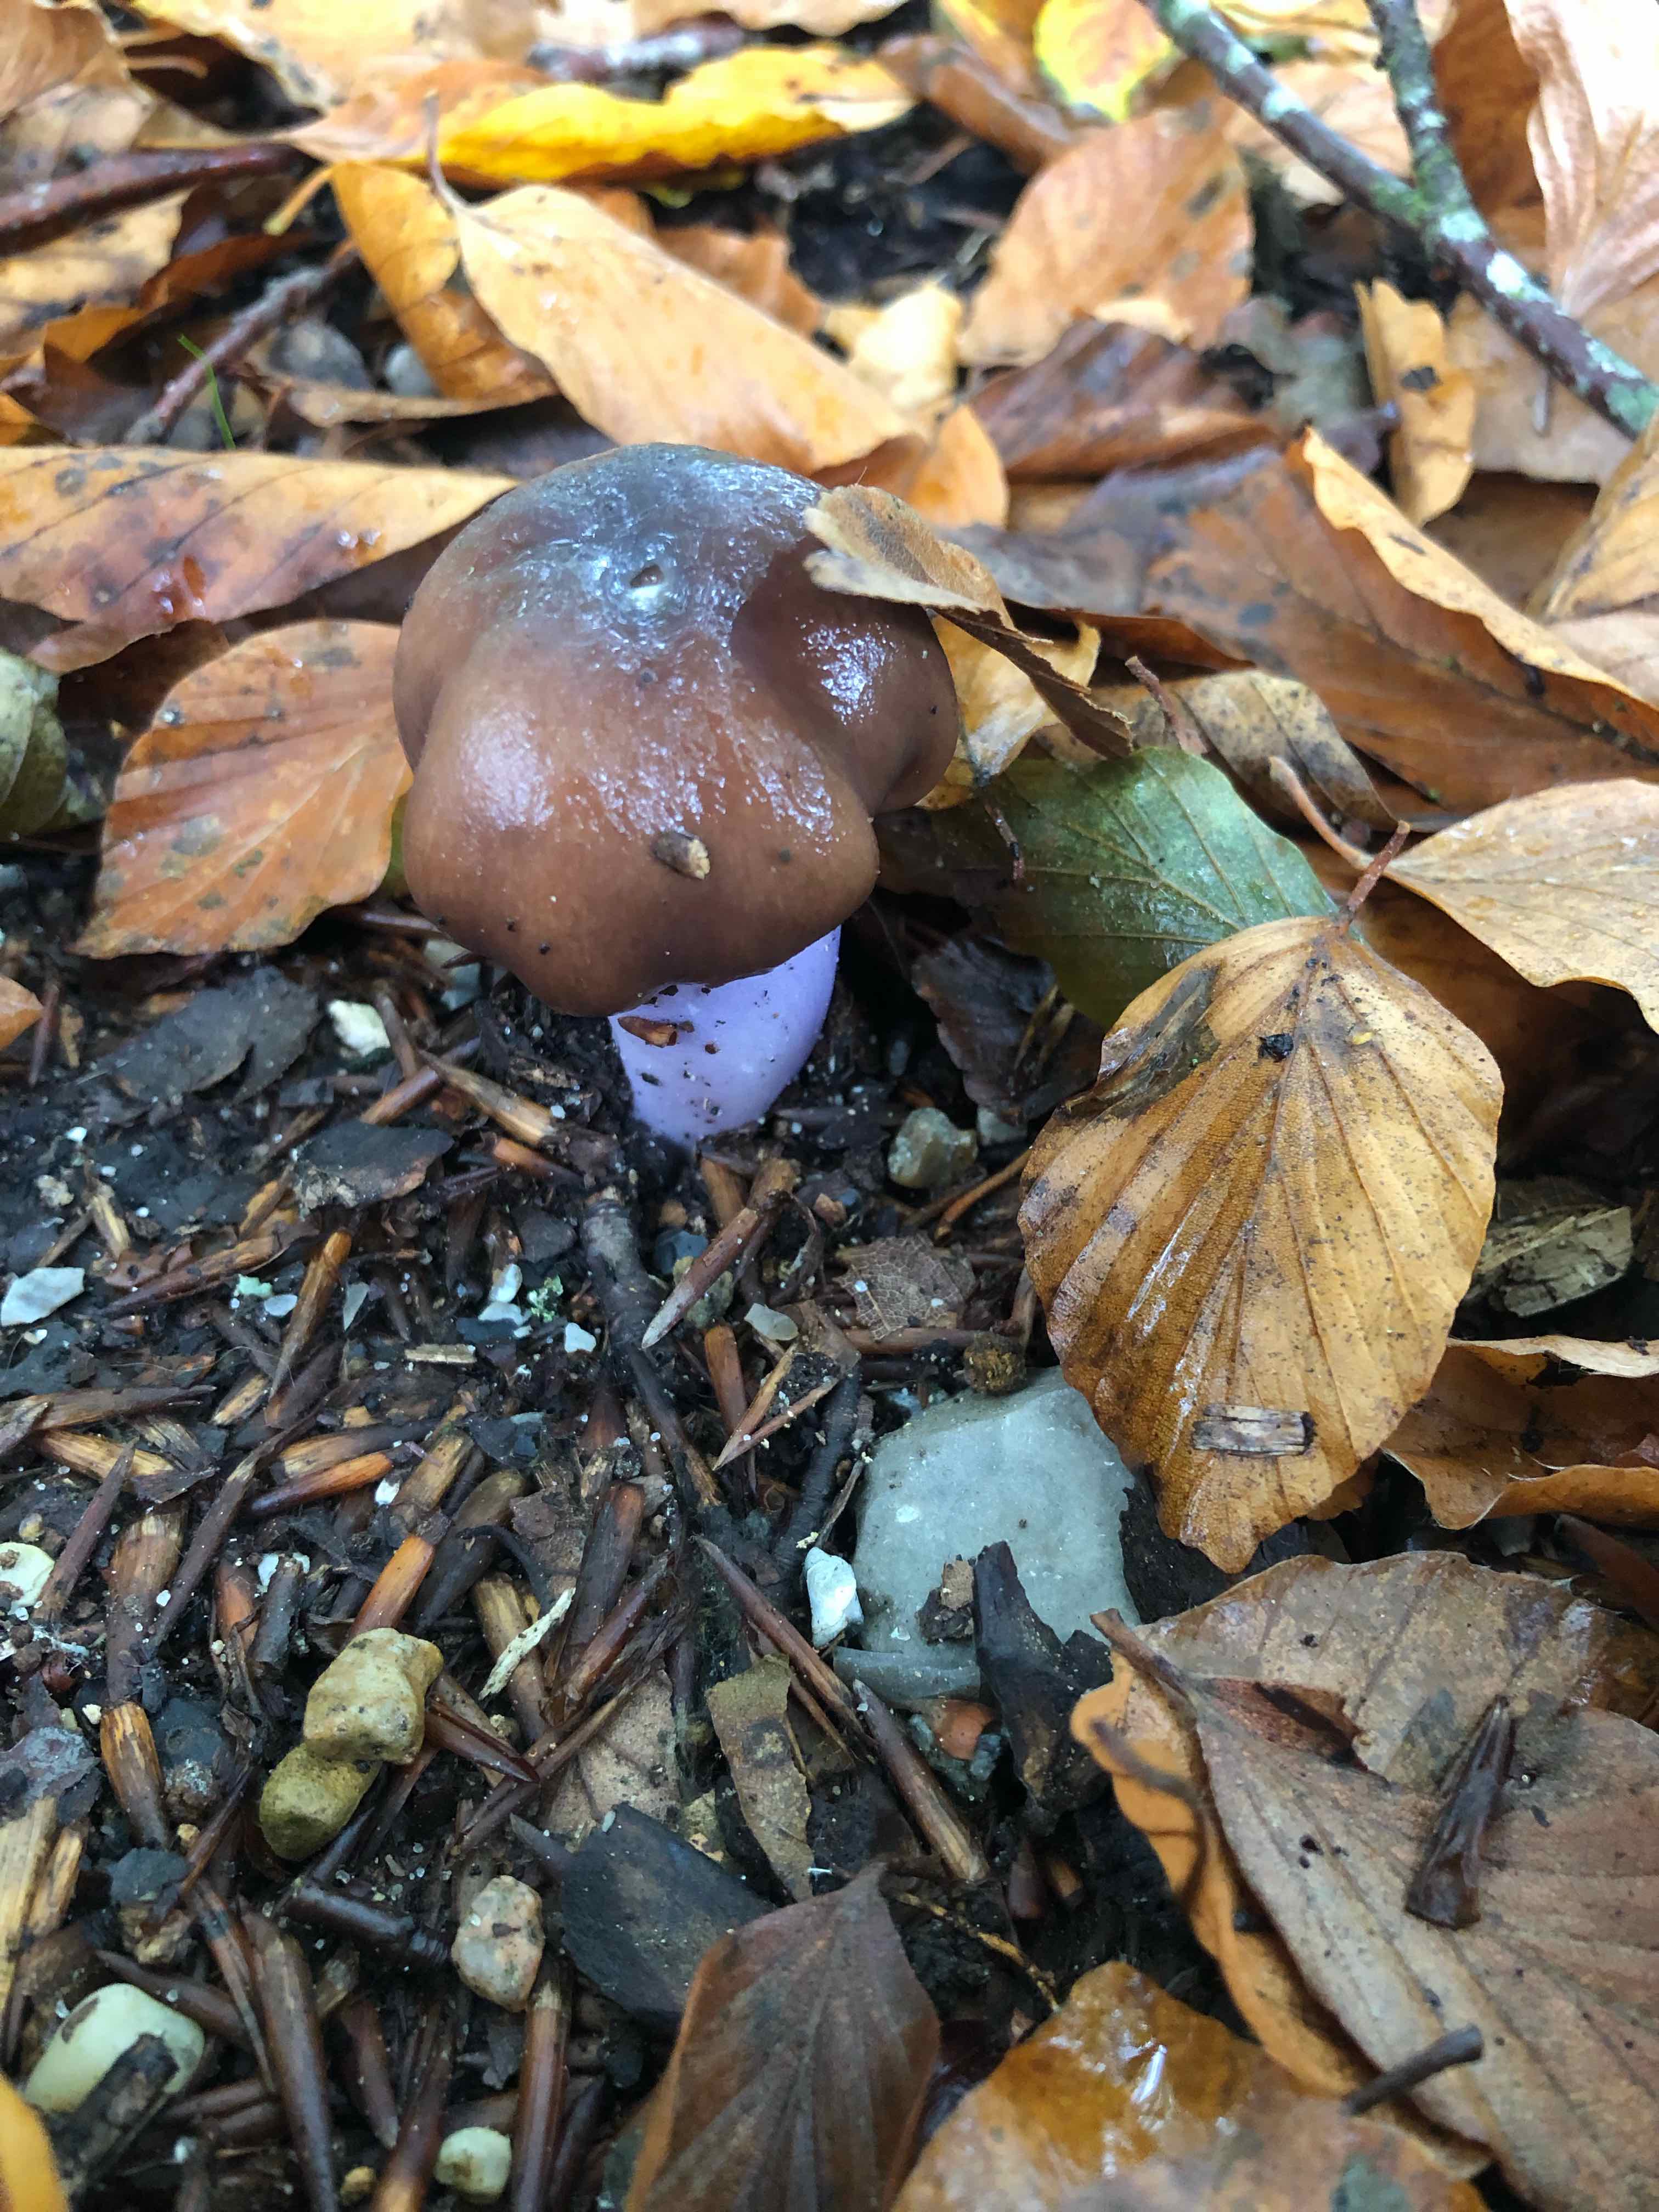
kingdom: Fungi
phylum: Basidiomycota
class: Agaricomycetes
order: Agaricales
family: Cortinariaceae
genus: Cortinarius
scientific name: Cortinarius elatior
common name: høj slørhat
